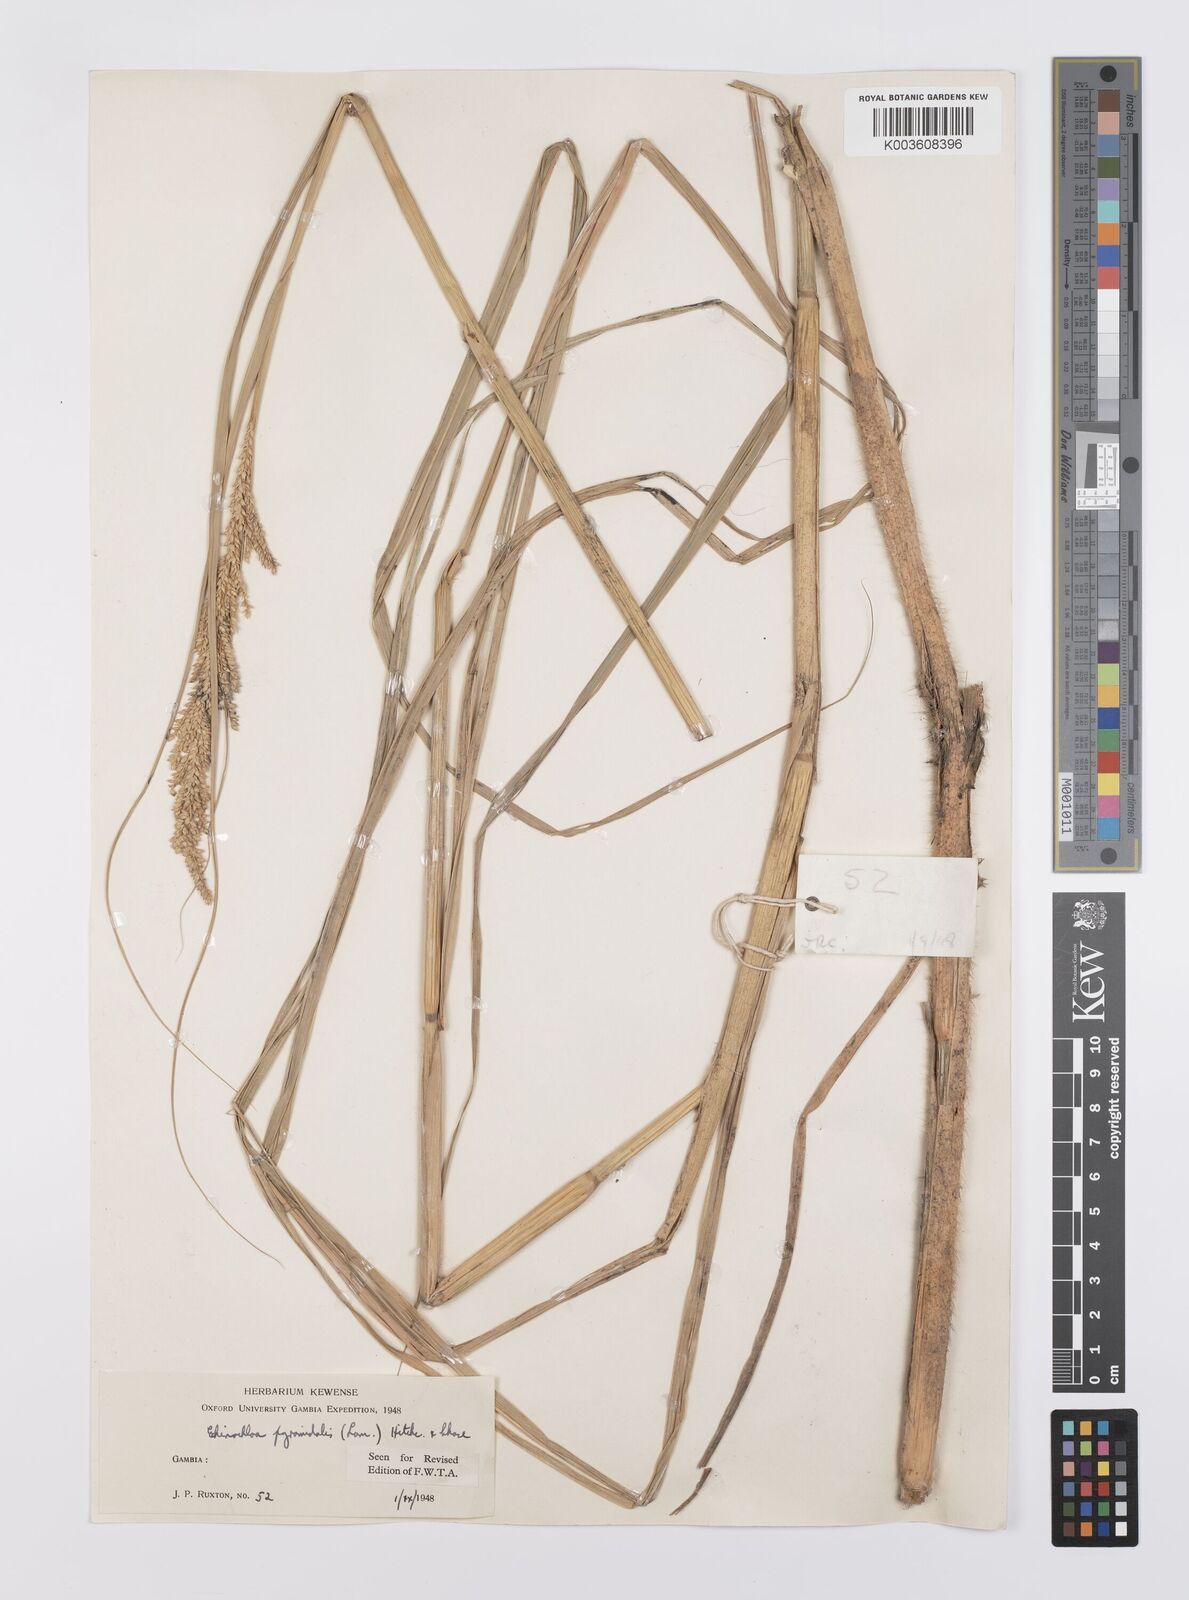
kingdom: Plantae
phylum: Tracheophyta
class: Liliopsida
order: Poales
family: Poaceae
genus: Echinochloa
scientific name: Echinochloa pyramidalis
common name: Antelope grass
